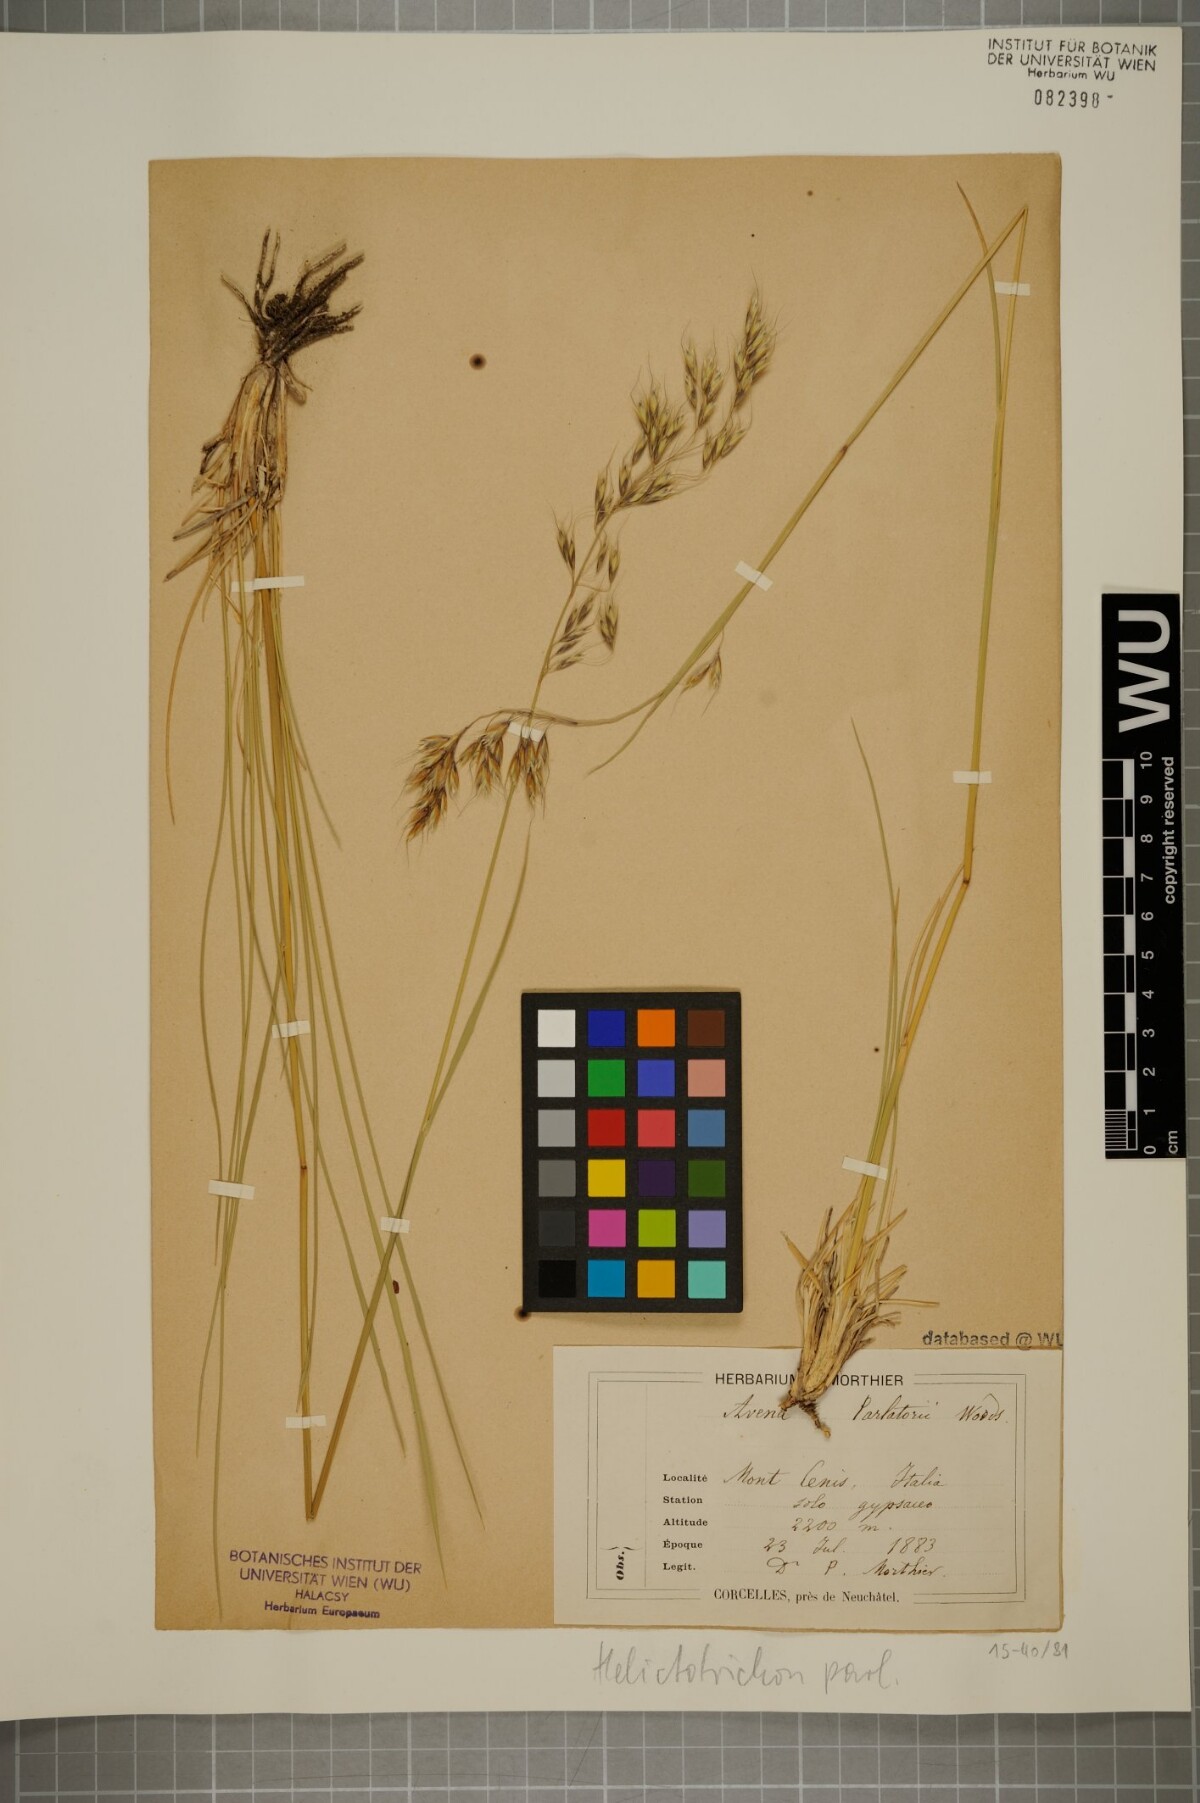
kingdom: Plantae
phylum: Tracheophyta
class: Liliopsida
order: Poales
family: Poaceae
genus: Helictotrichon
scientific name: Helictotrichon parlatorei
